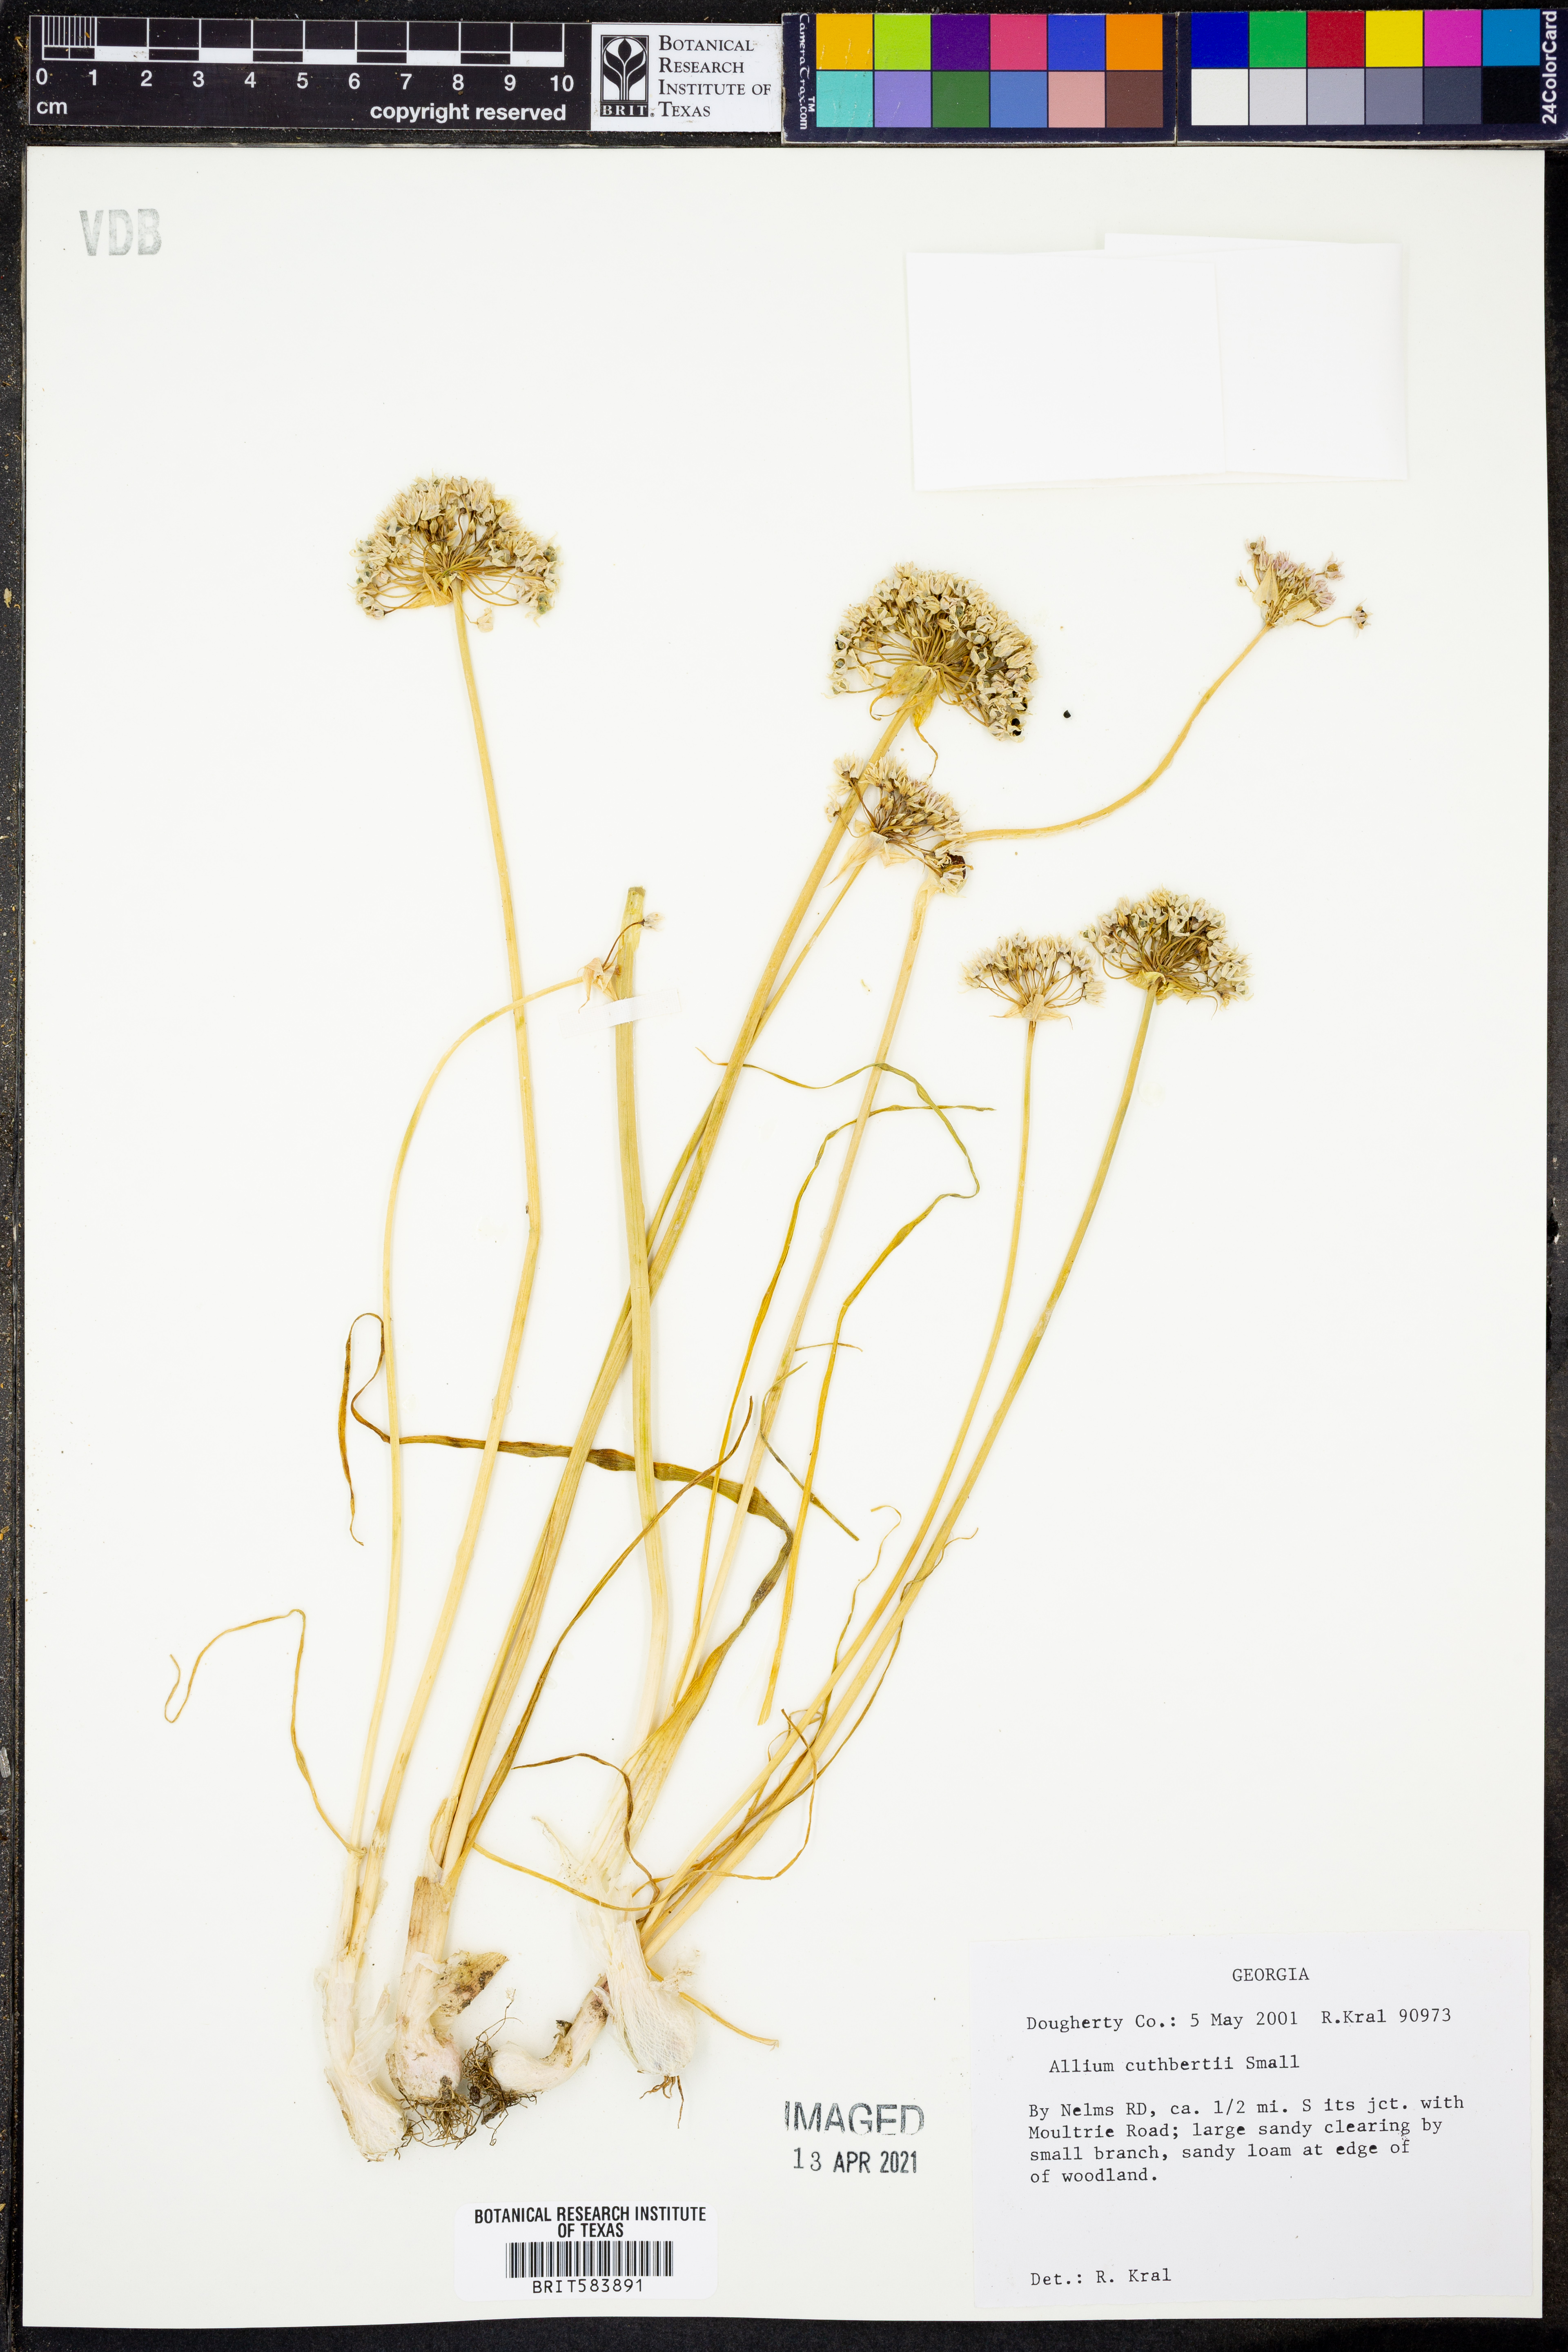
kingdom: Plantae
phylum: Tracheophyta
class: Liliopsida
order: Asparagales
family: Amaryllidaceae
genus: Allium
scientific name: Allium cuthbertii
